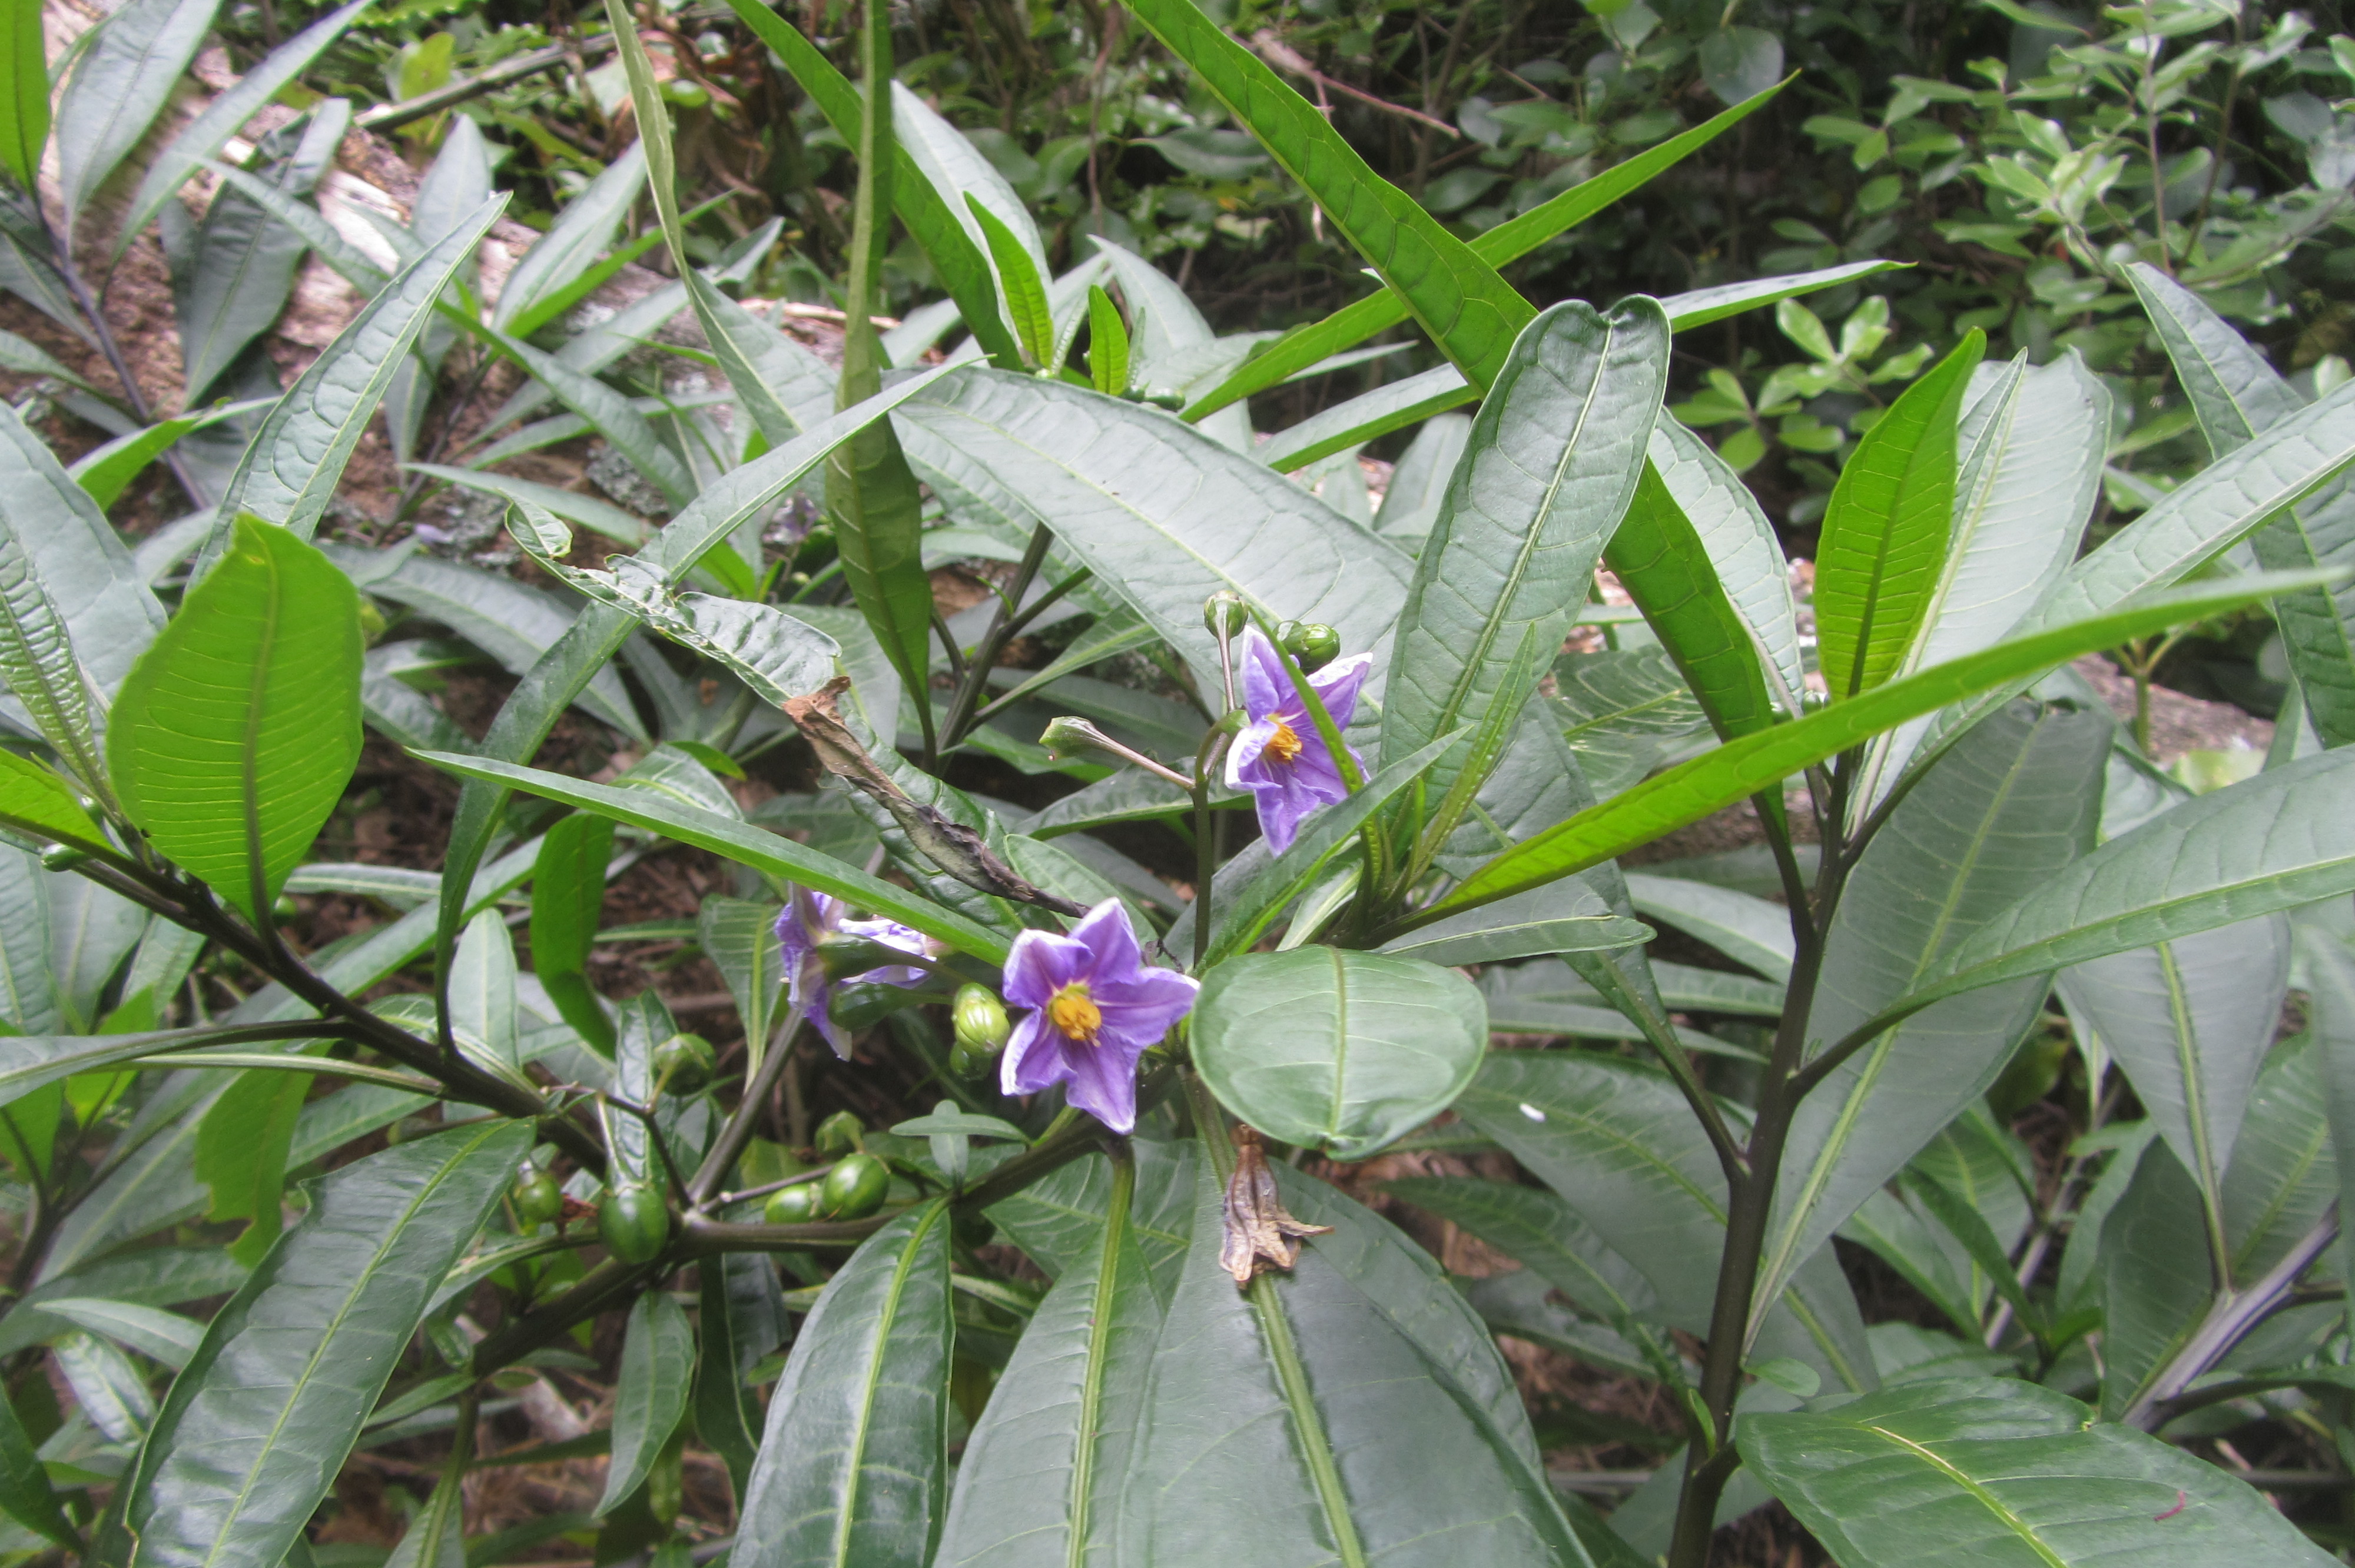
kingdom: Plantae
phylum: Tracheophyta
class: Magnoliopsida
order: Solanales
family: Solanaceae
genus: Solanum
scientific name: Solanum aviculare
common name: New zealand nightshade
